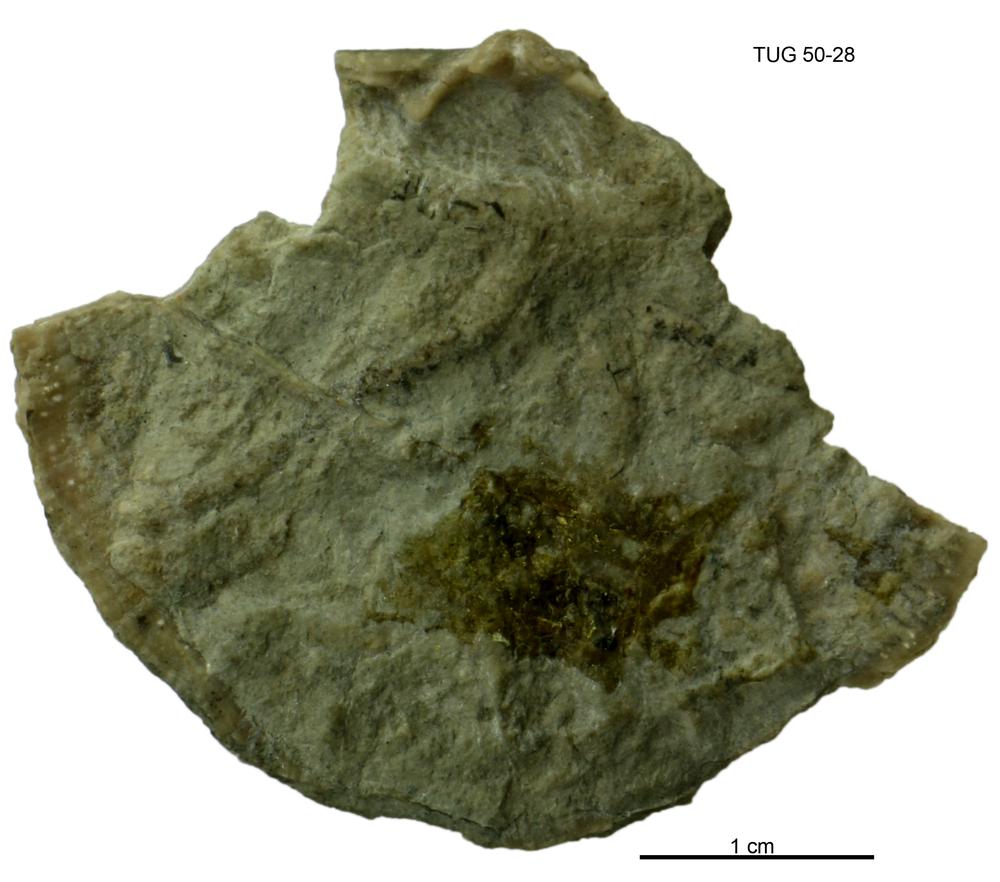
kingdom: Animalia
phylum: Brachiopoda
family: Strophomenidae
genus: Leigerina
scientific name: Leigerina hiiuensis
